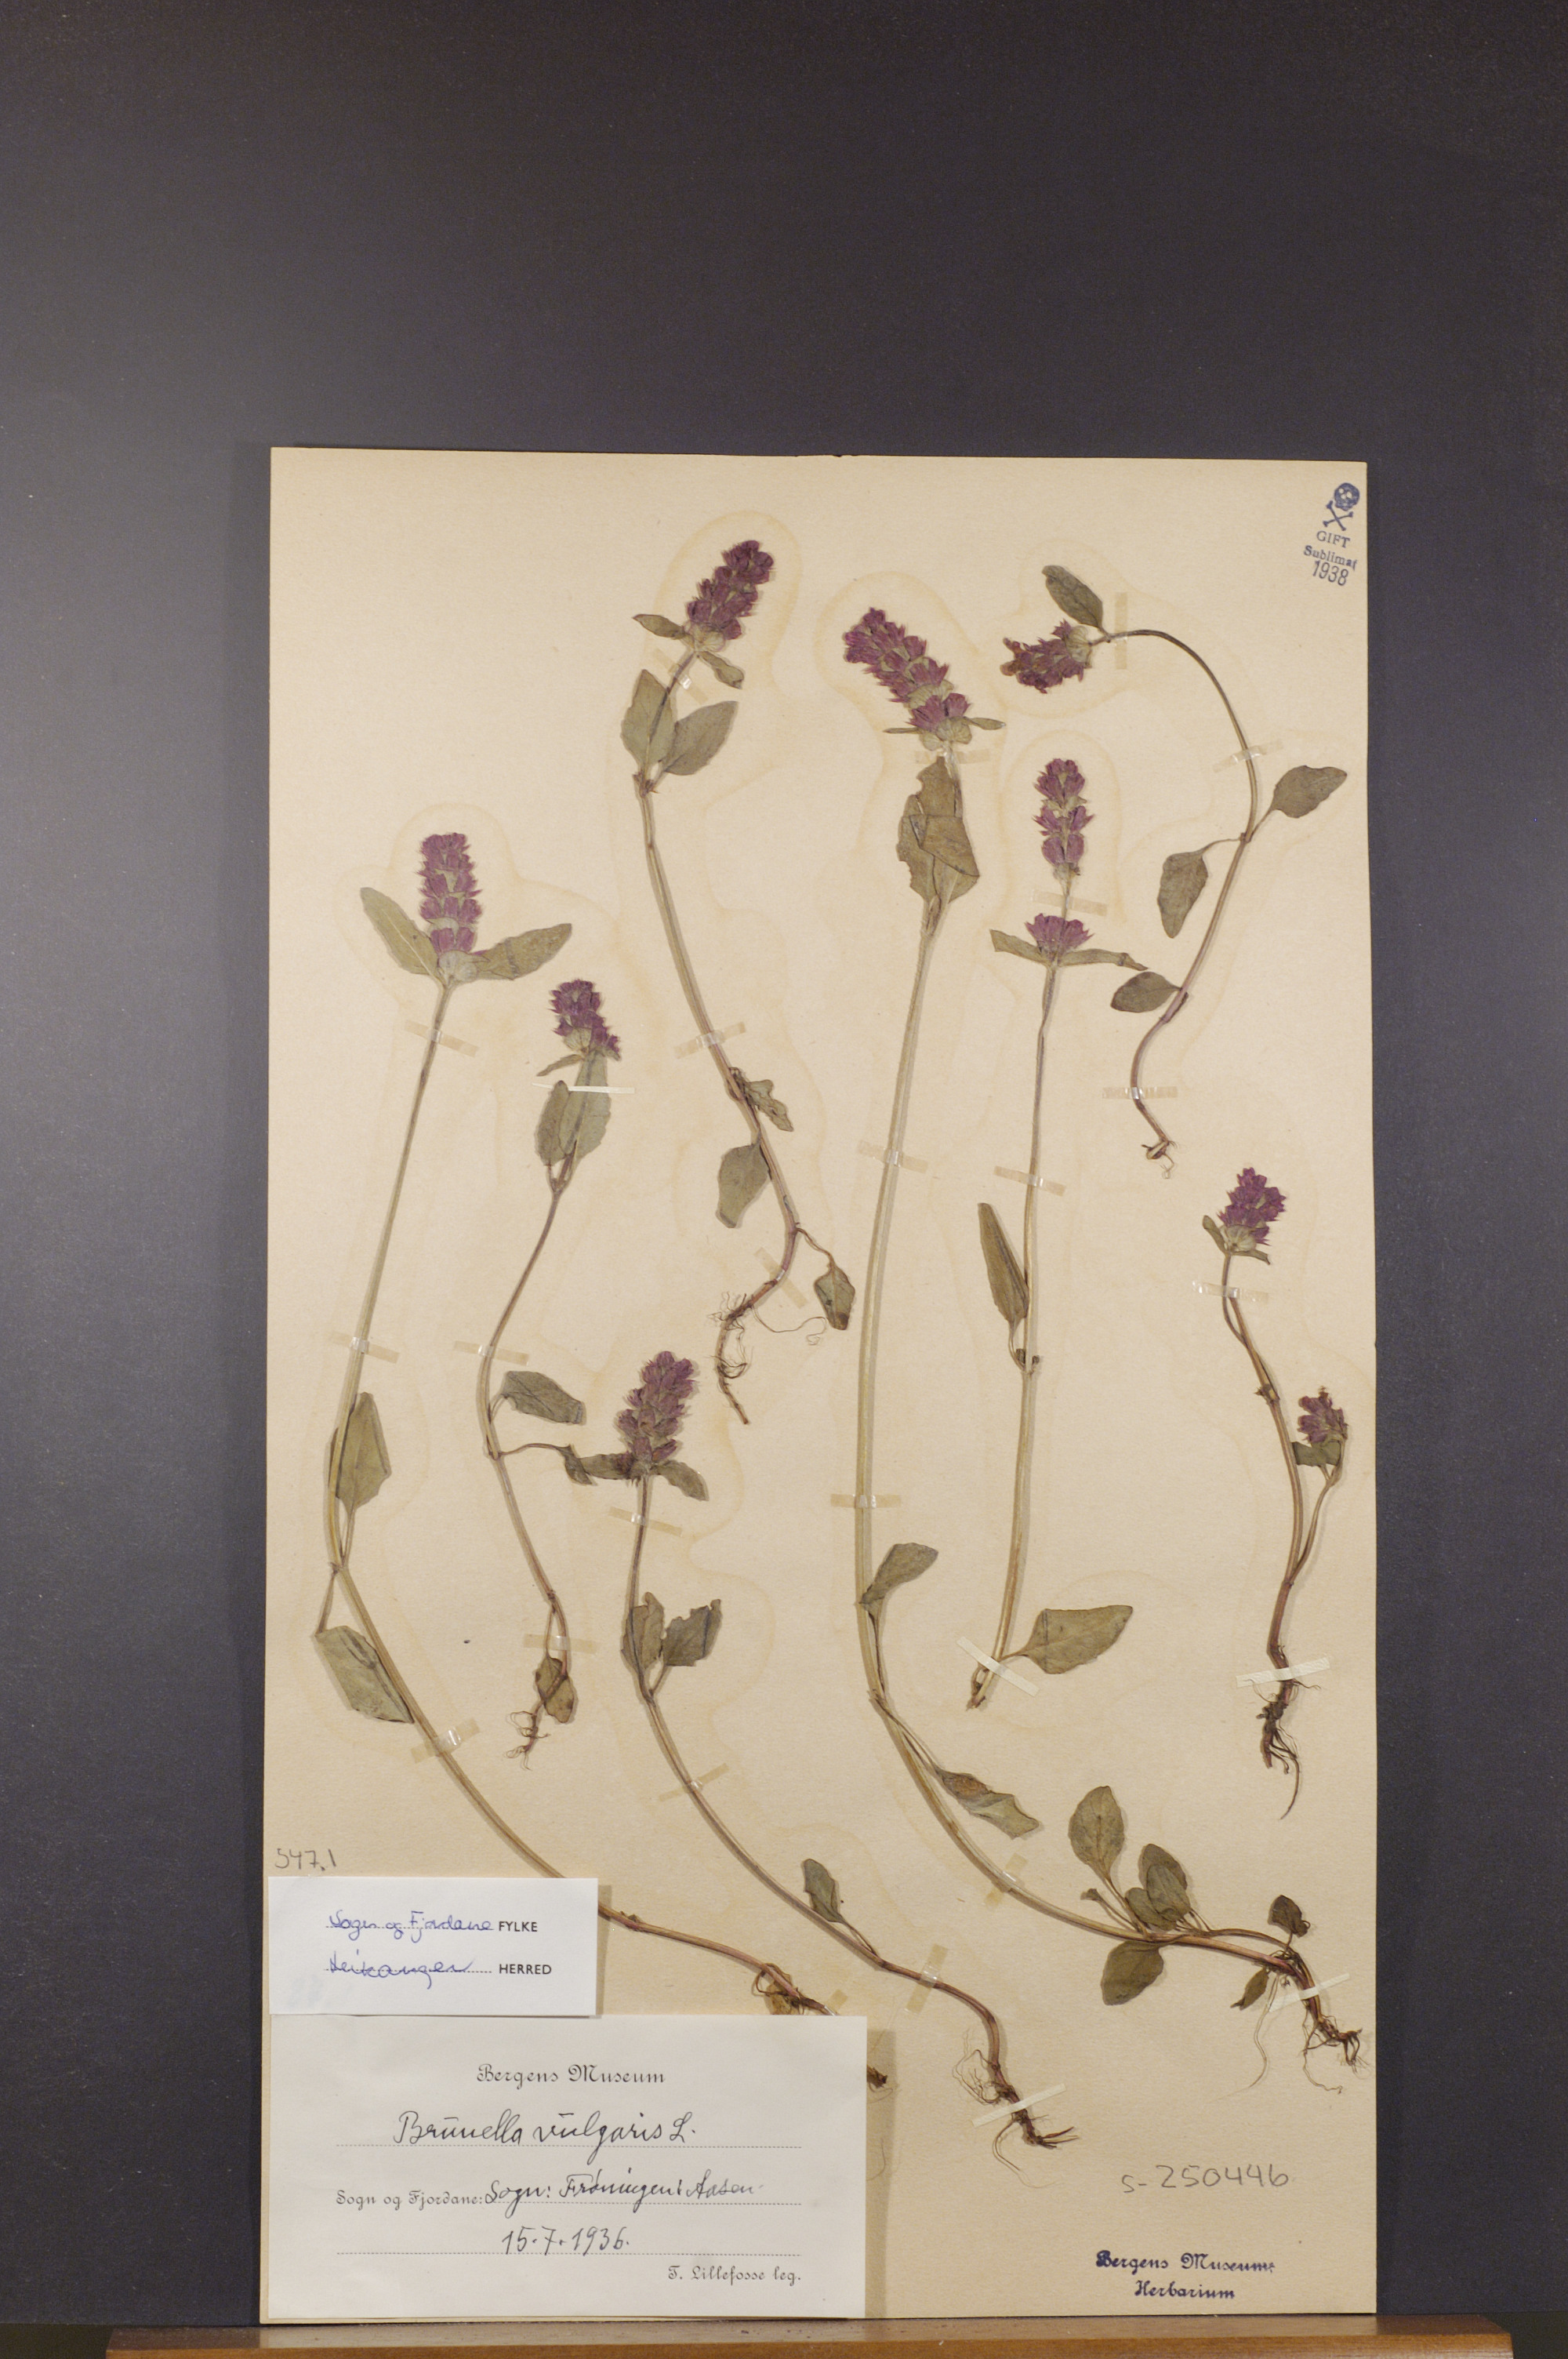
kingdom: Plantae
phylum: Tracheophyta
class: Magnoliopsida
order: Lamiales
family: Lamiaceae
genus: Prunella
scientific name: Prunella vulgaris
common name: Heal-all
